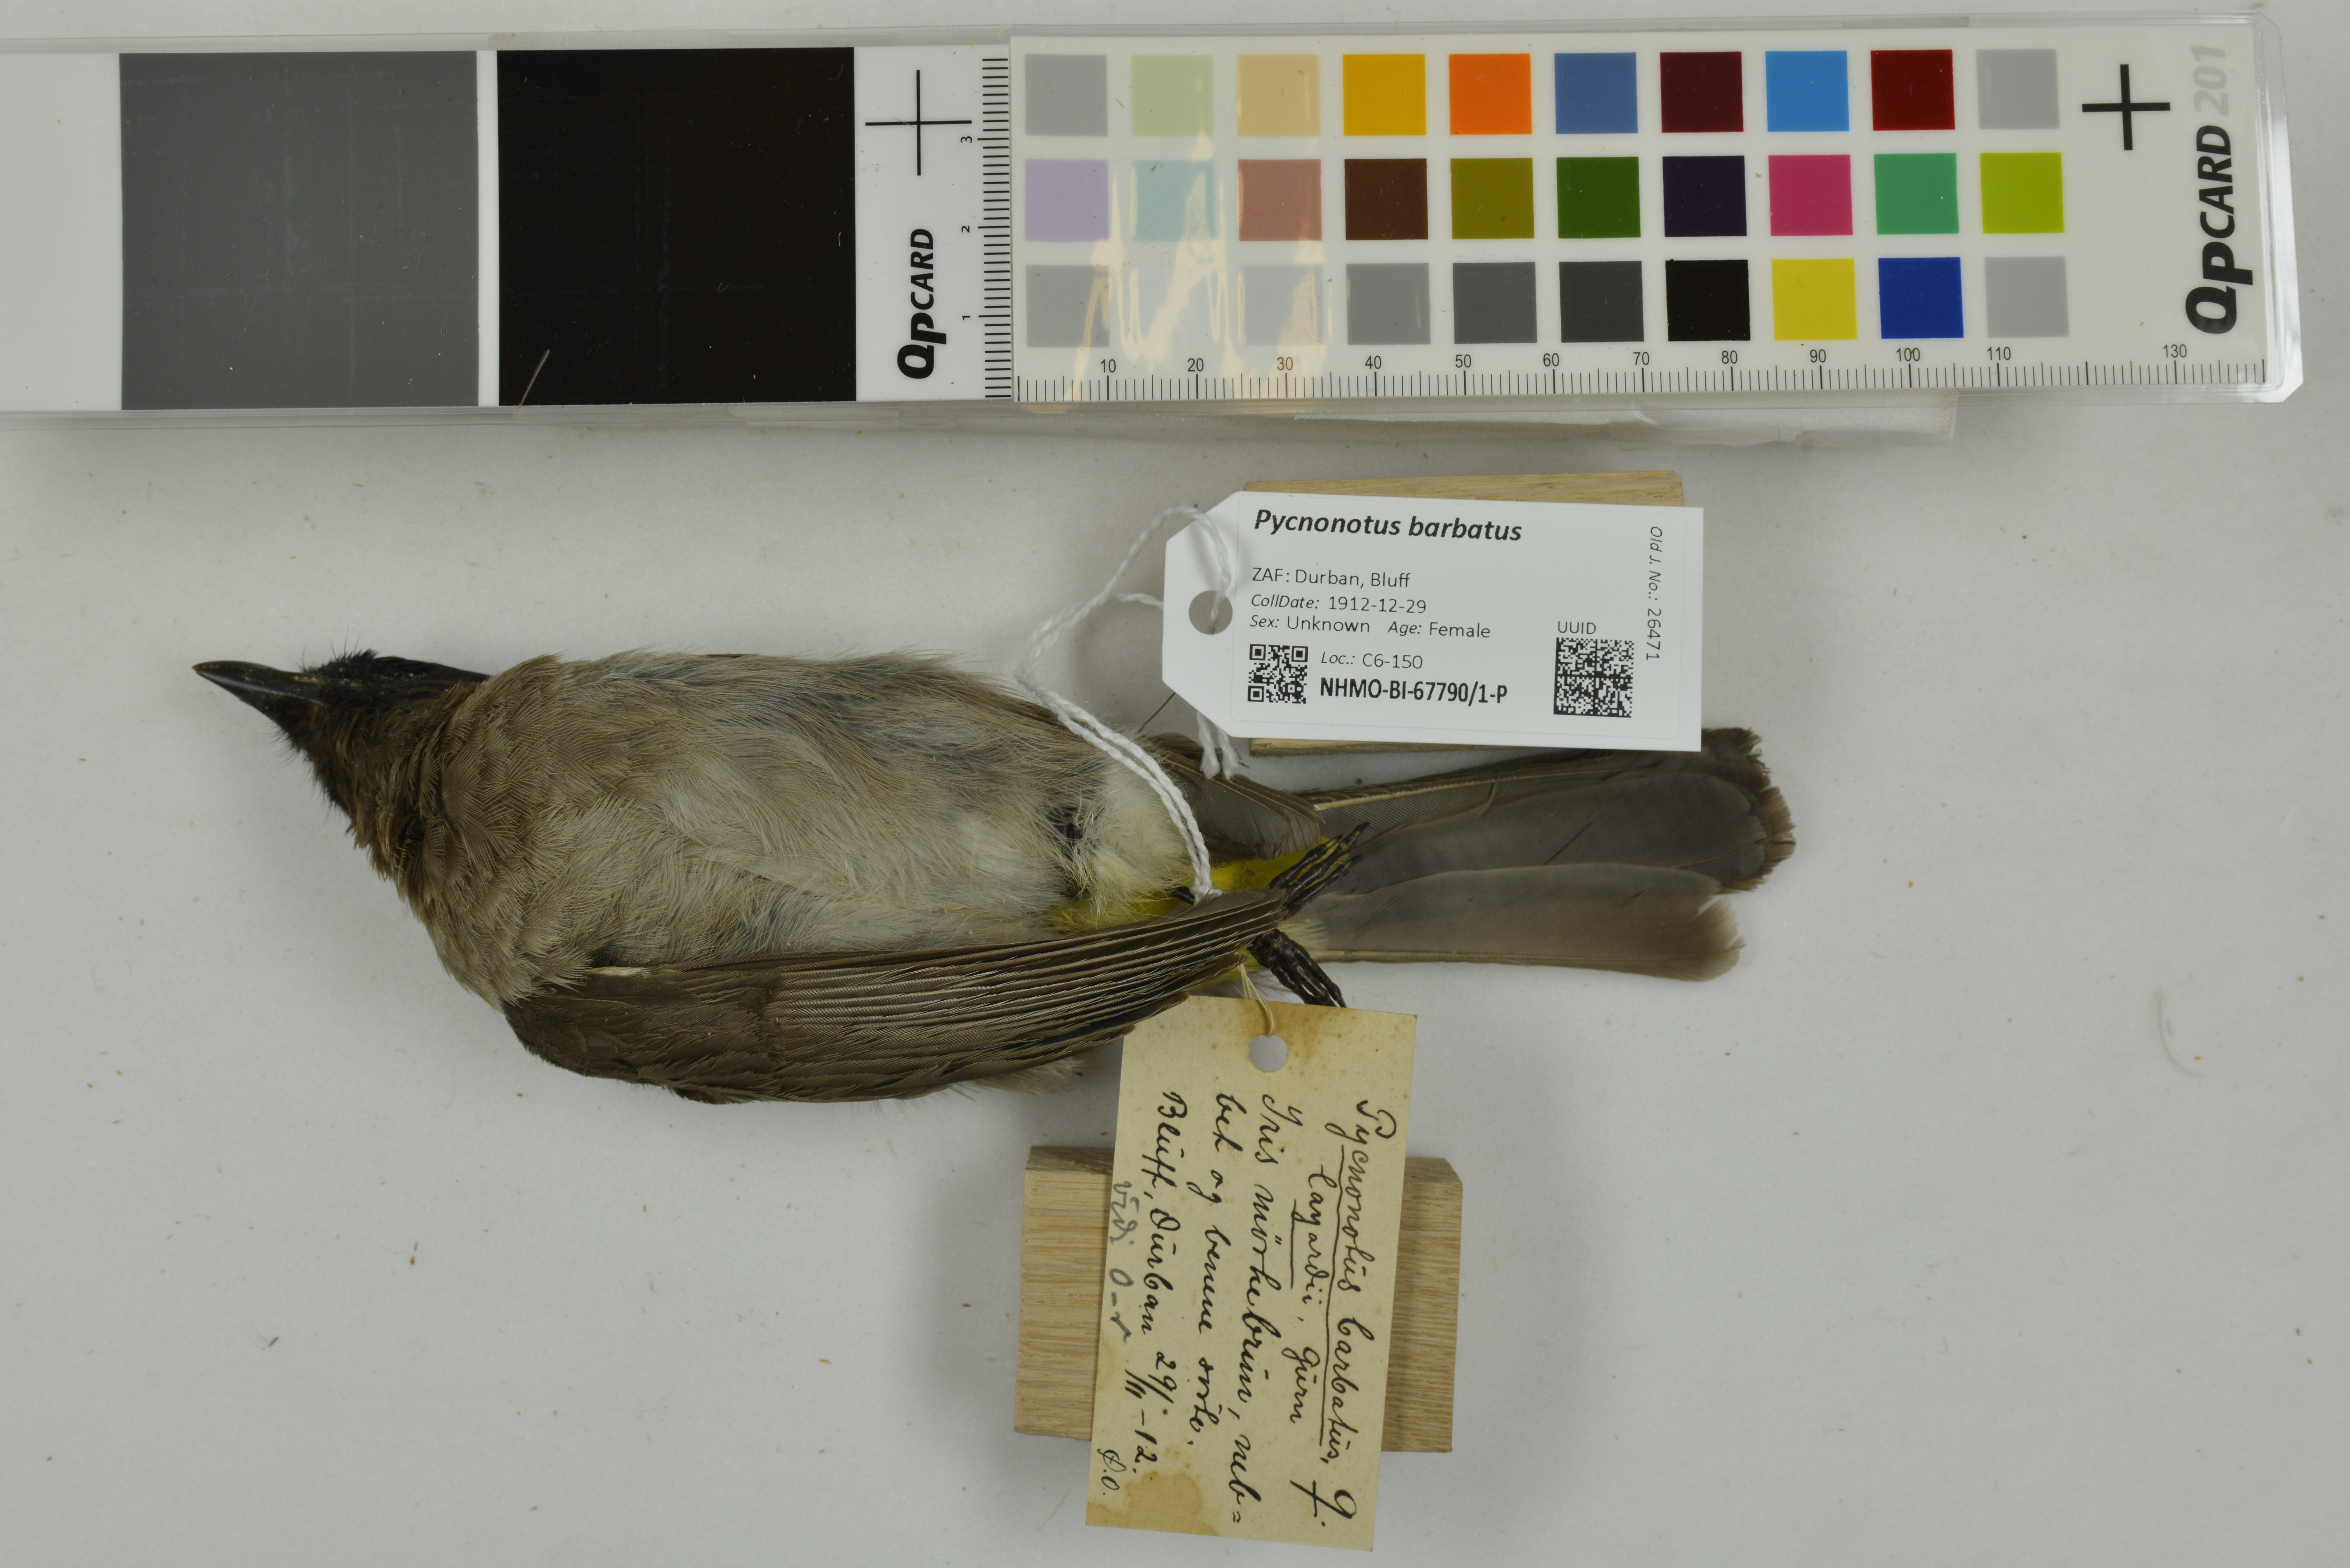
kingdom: Animalia
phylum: Chordata
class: Aves
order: Passeriformes
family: Pycnonotidae
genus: Pycnonotus
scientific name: Pycnonotus barbatus
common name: Common bulbul
